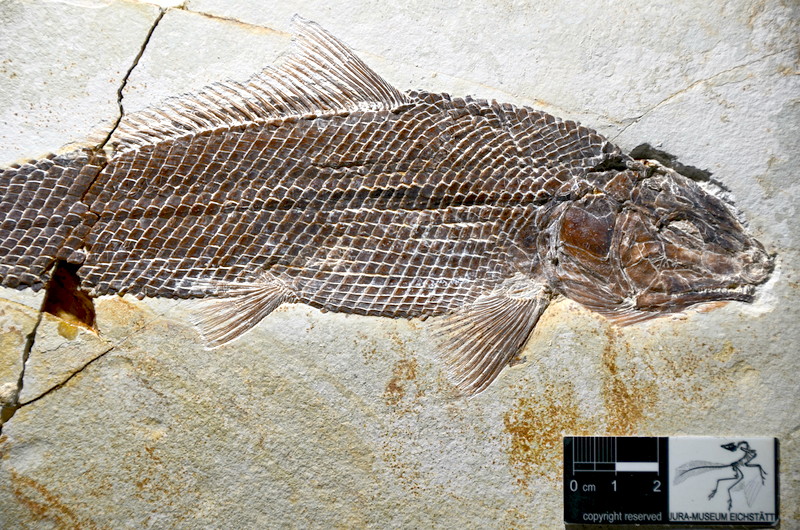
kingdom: Animalia
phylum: Chordata
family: Ophiopsiellidae
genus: Ophiopsiella
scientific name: Ophiopsiella attenuata
